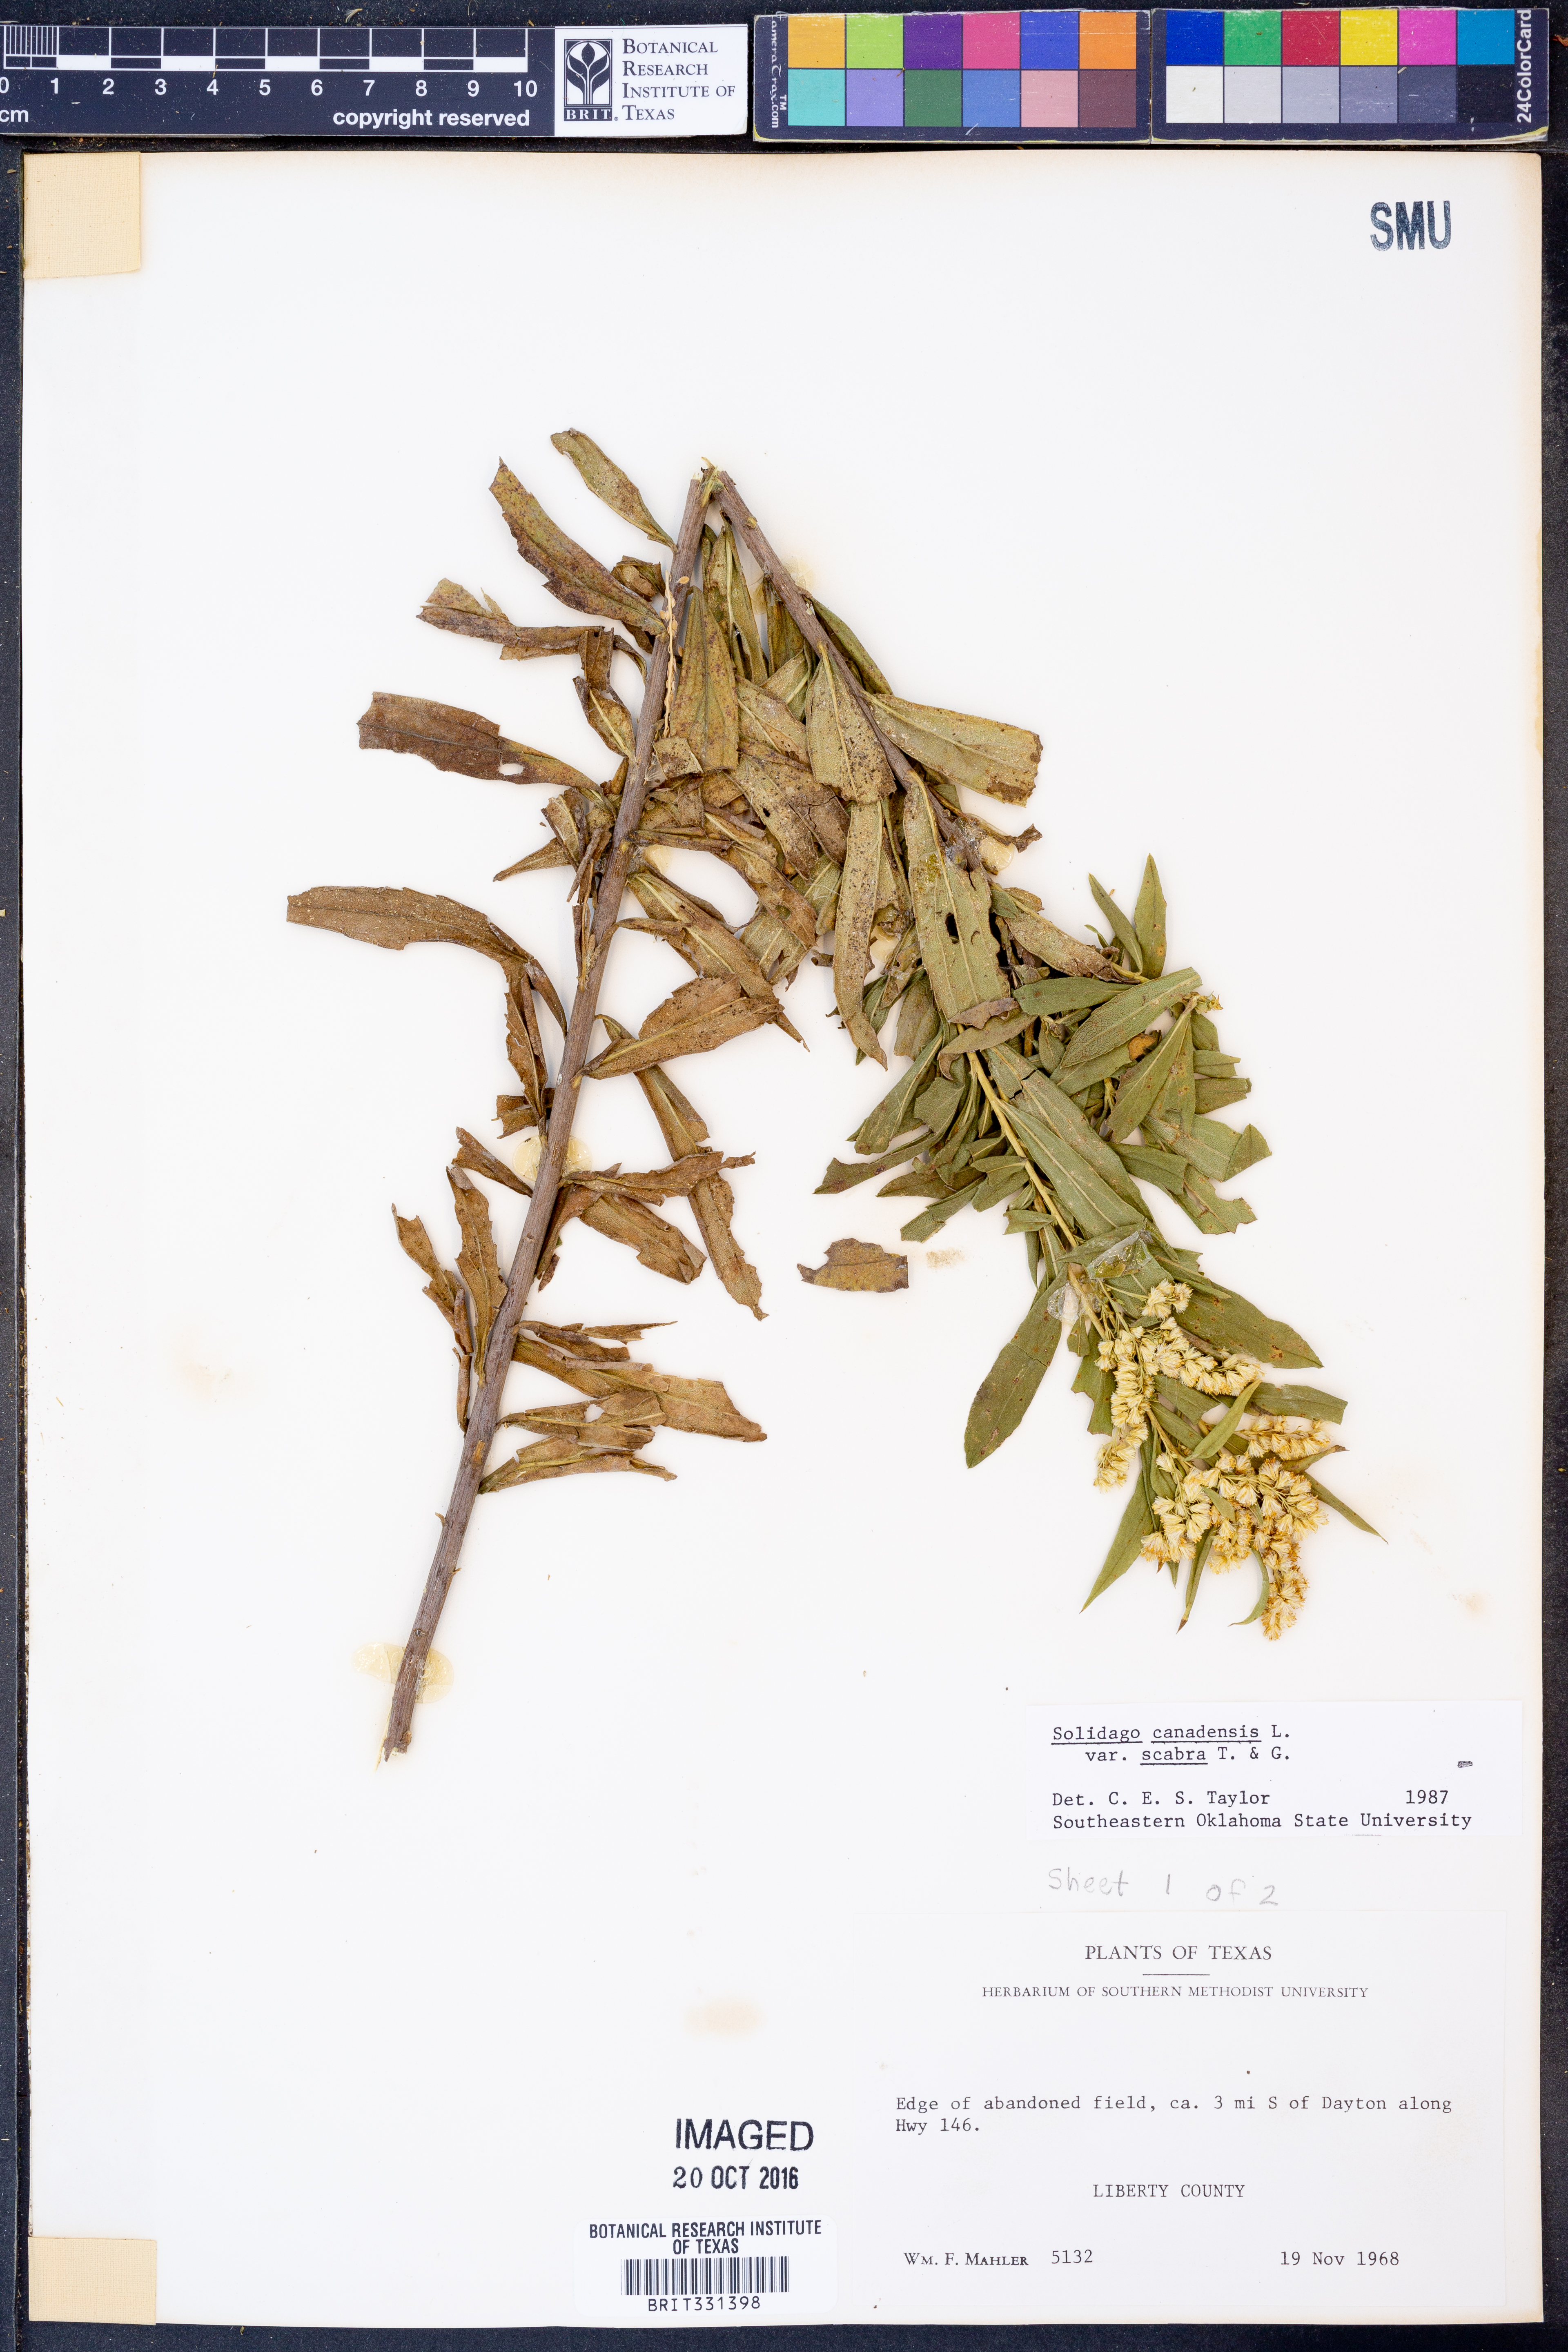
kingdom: Plantae
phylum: Tracheophyta
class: Magnoliopsida
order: Asterales
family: Asteraceae
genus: Solidago
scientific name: Solidago altissima
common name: Late goldenrod
